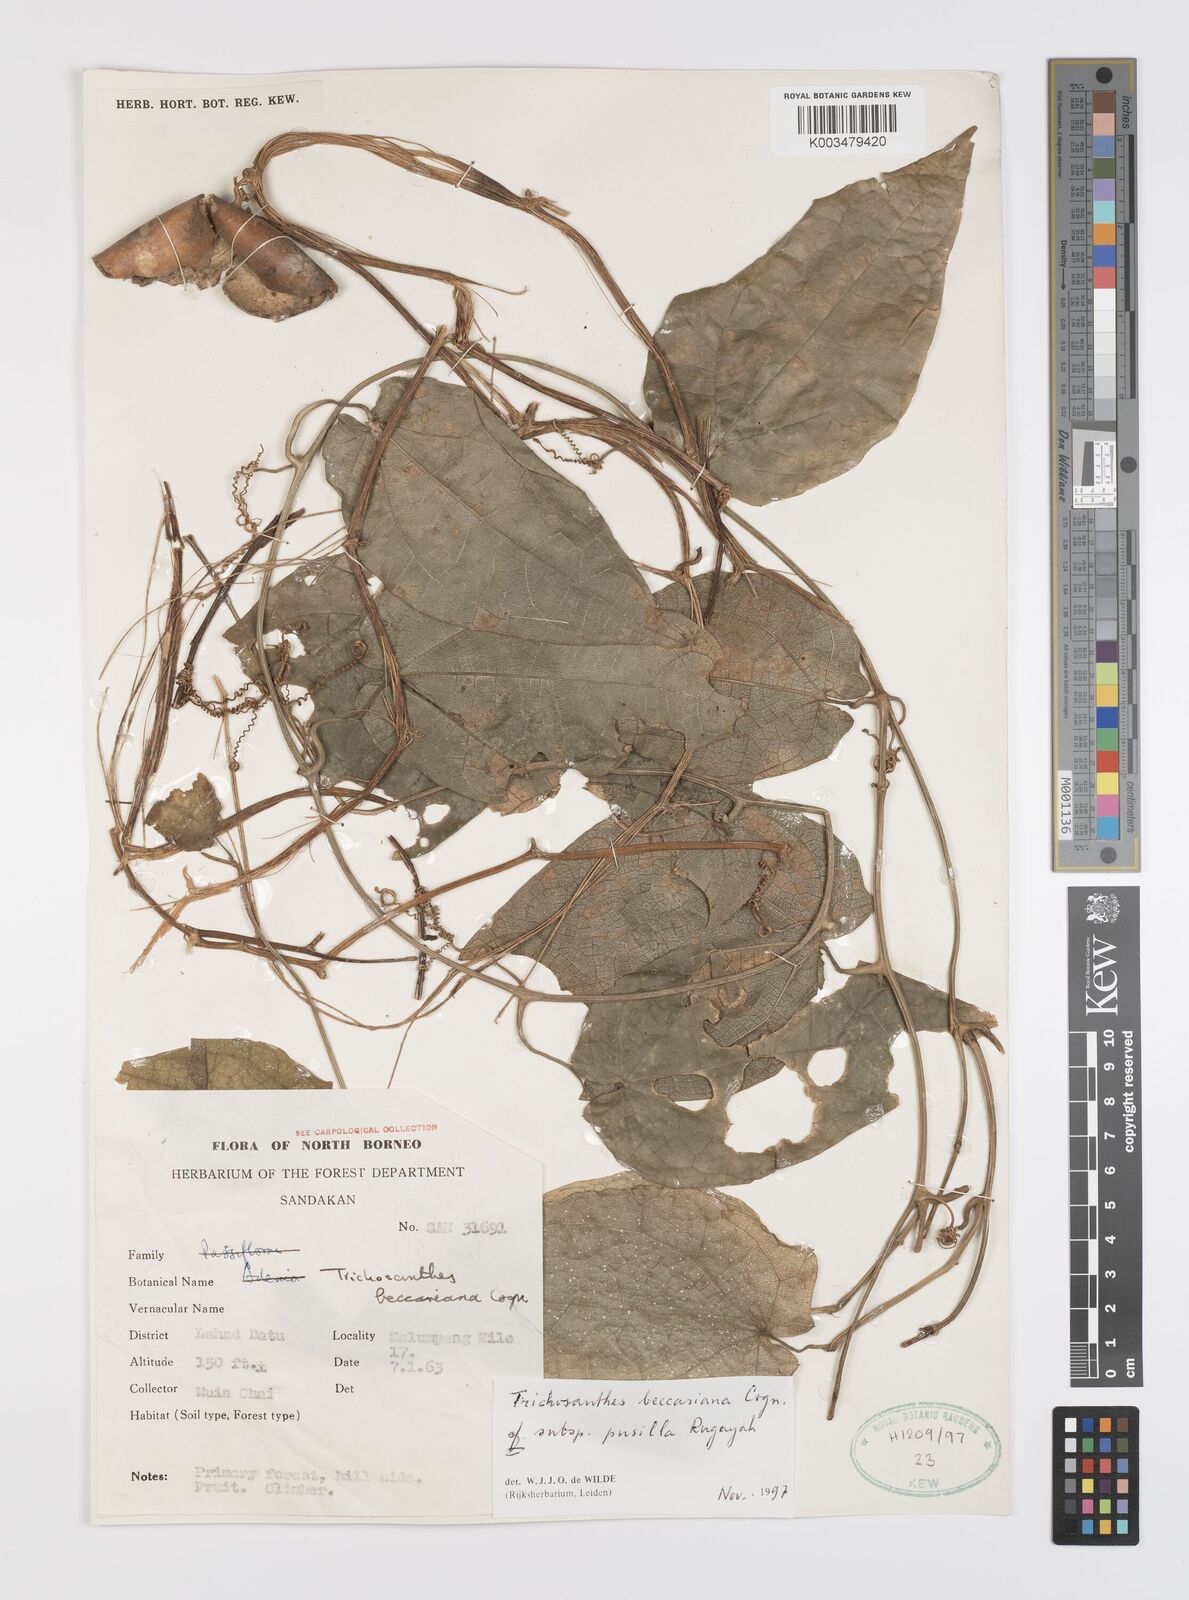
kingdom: Plantae
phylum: Tracheophyta
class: Magnoliopsida
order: Cucurbitales
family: Cucurbitaceae
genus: Trichosanthes
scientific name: Trichosanthes beccariana
